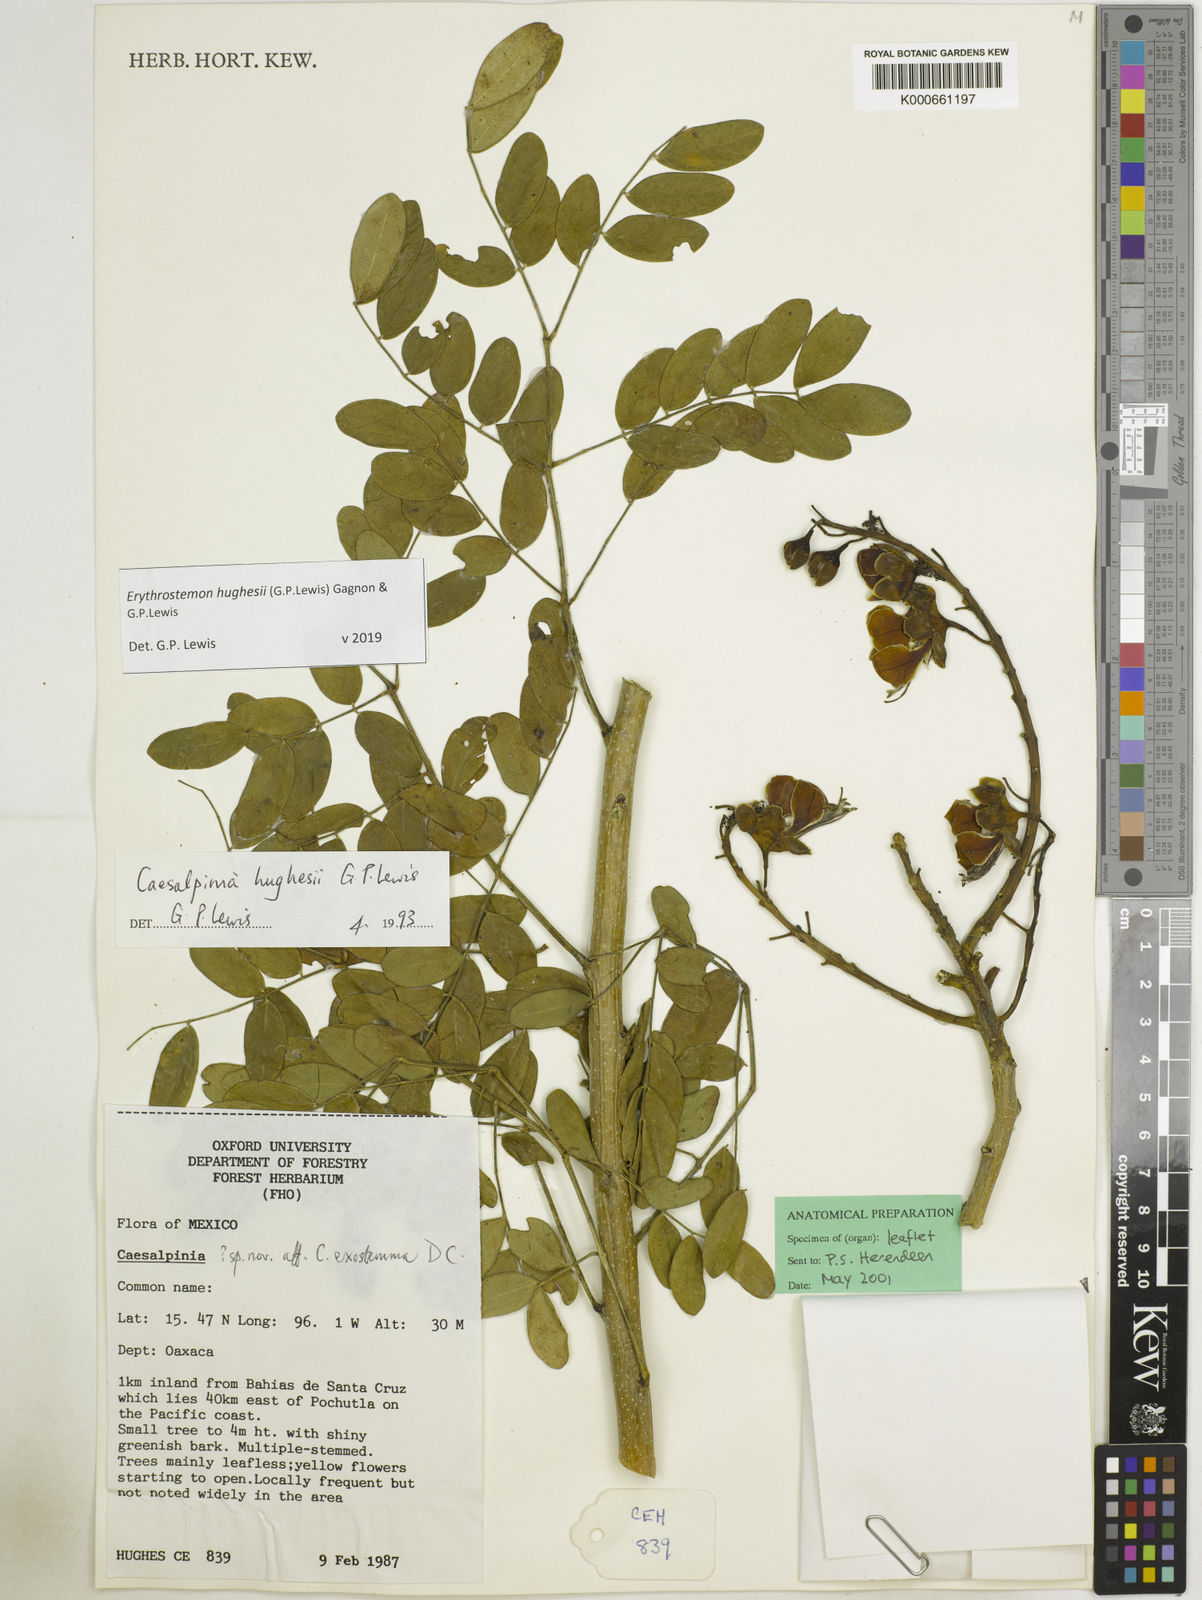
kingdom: Plantae
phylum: Tracheophyta
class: Magnoliopsida
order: Fabales
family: Fabaceae
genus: Erythrostemon
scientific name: Erythrostemon hughesii
